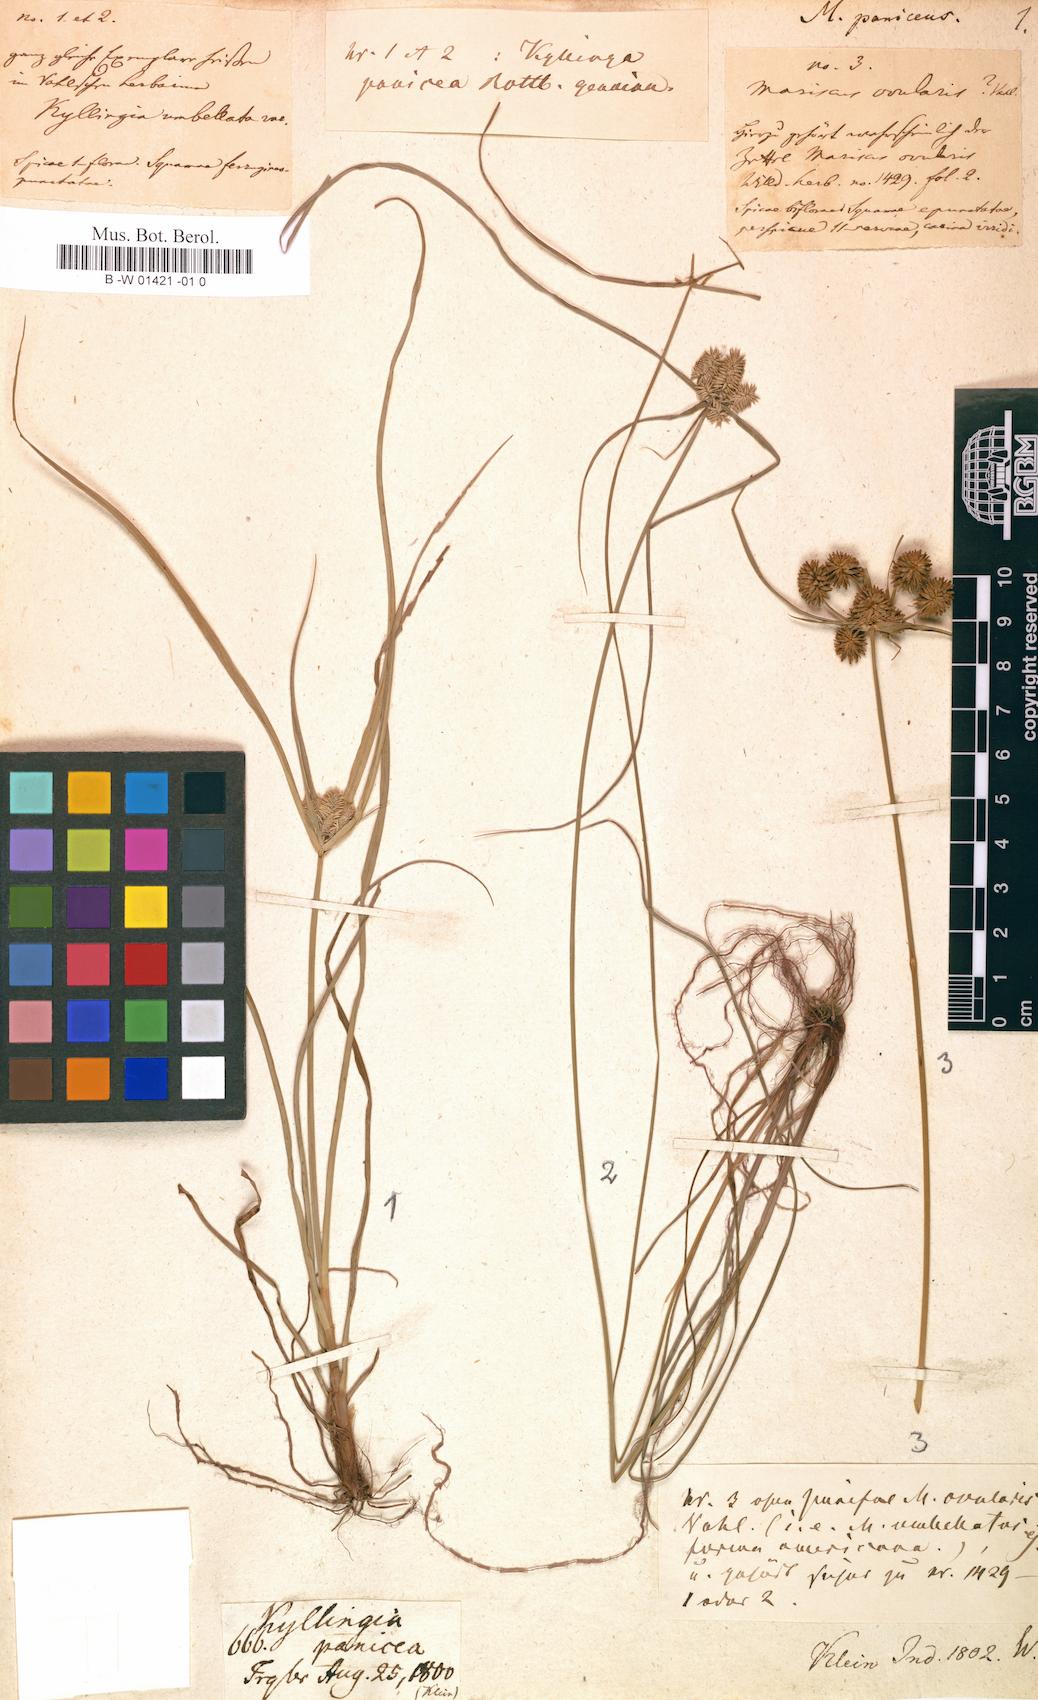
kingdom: Plantae
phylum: Tracheophyta
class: Liliopsida
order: Poales
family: Cyperaceae
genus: Cyperus
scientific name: Cyperus paniceus
